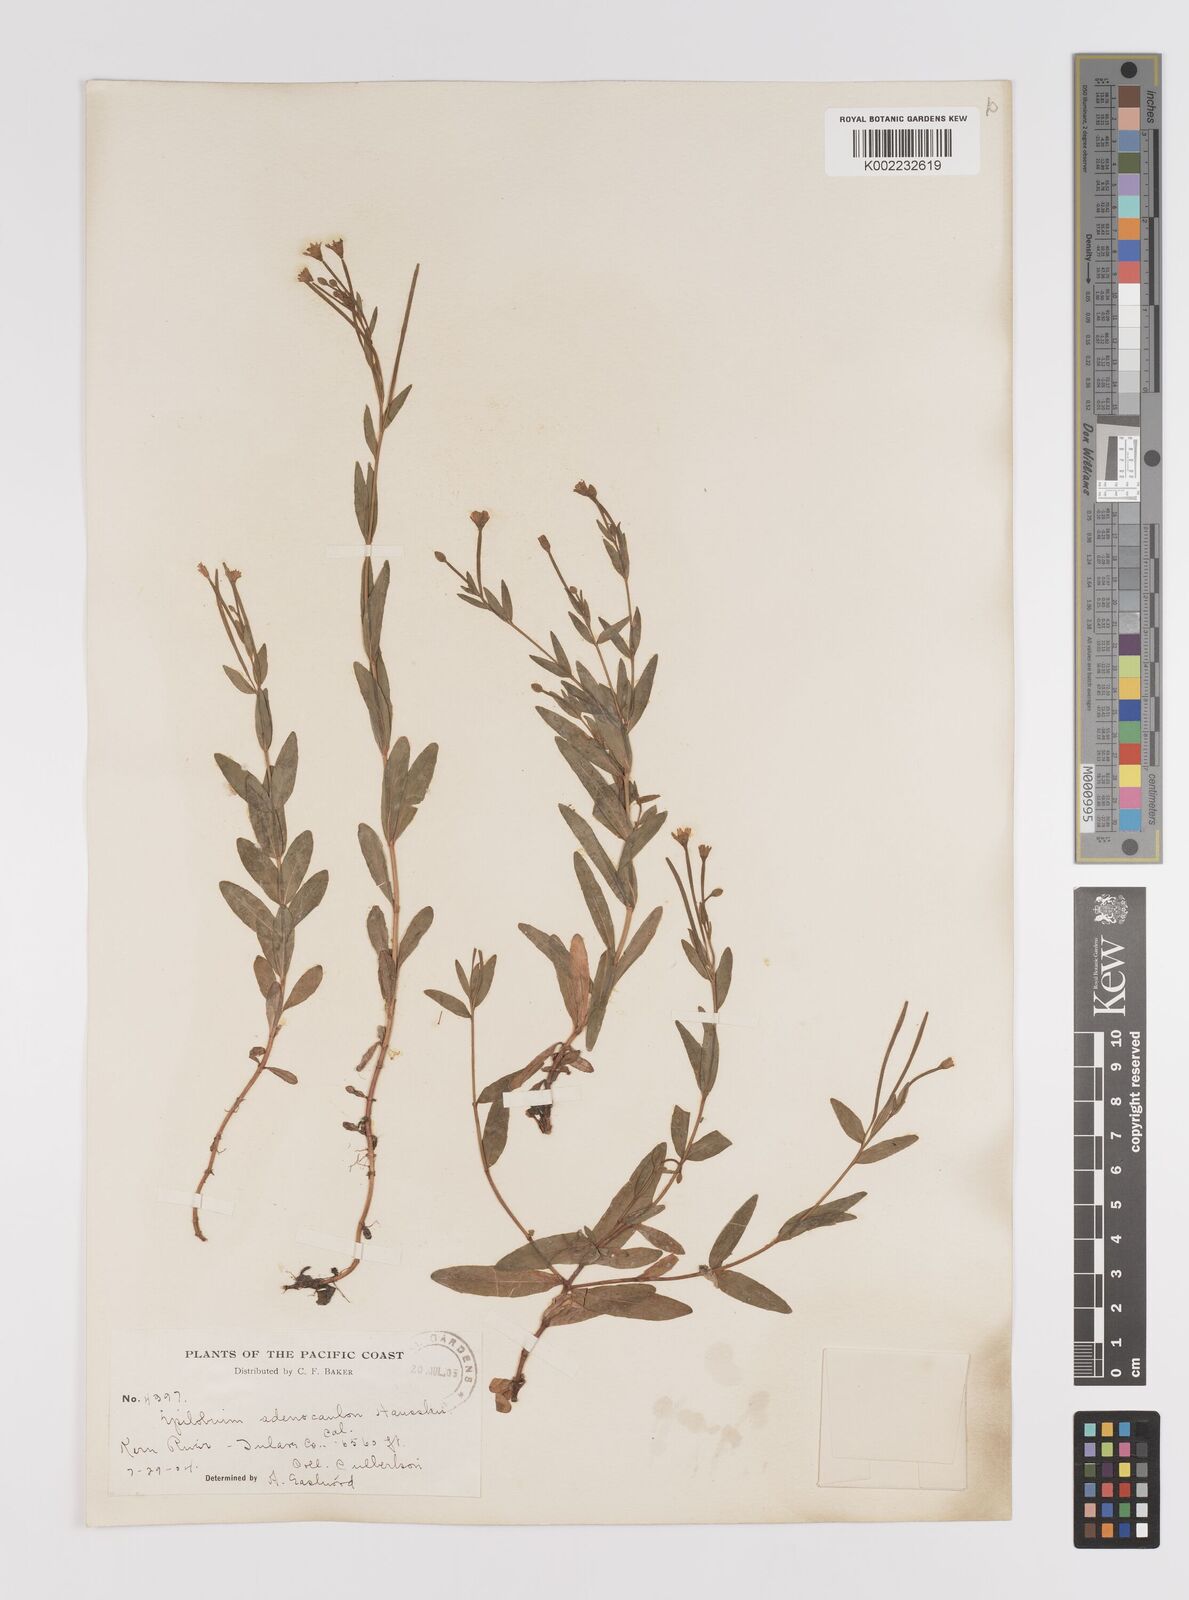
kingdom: Plantae
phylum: Tracheophyta
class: Magnoliopsida
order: Myrtales
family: Onagraceae
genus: Epilobium
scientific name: Epilobium ciliatum
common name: American willowherb
